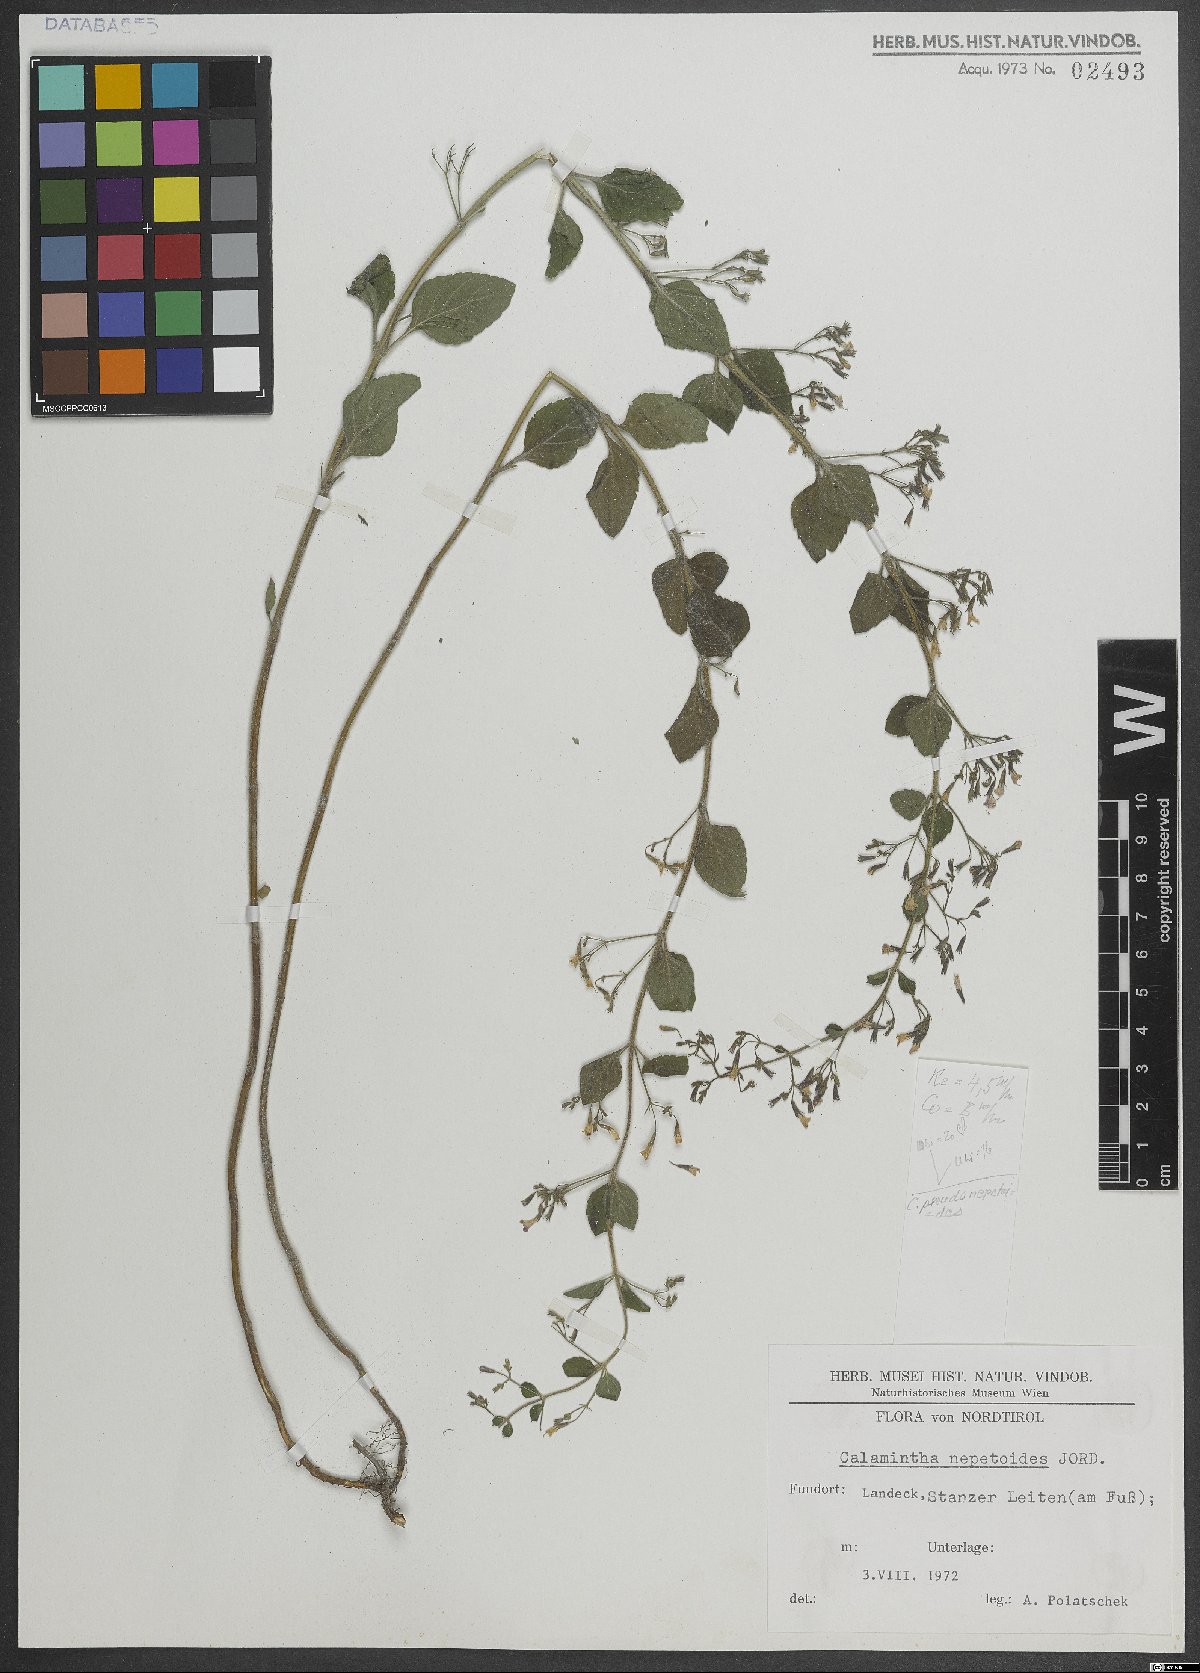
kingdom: Plantae
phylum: Tracheophyta
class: Magnoliopsida
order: Lamiales
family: Lamiaceae
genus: Clinopodium
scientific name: Clinopodium nepeta
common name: Lesser calamint
